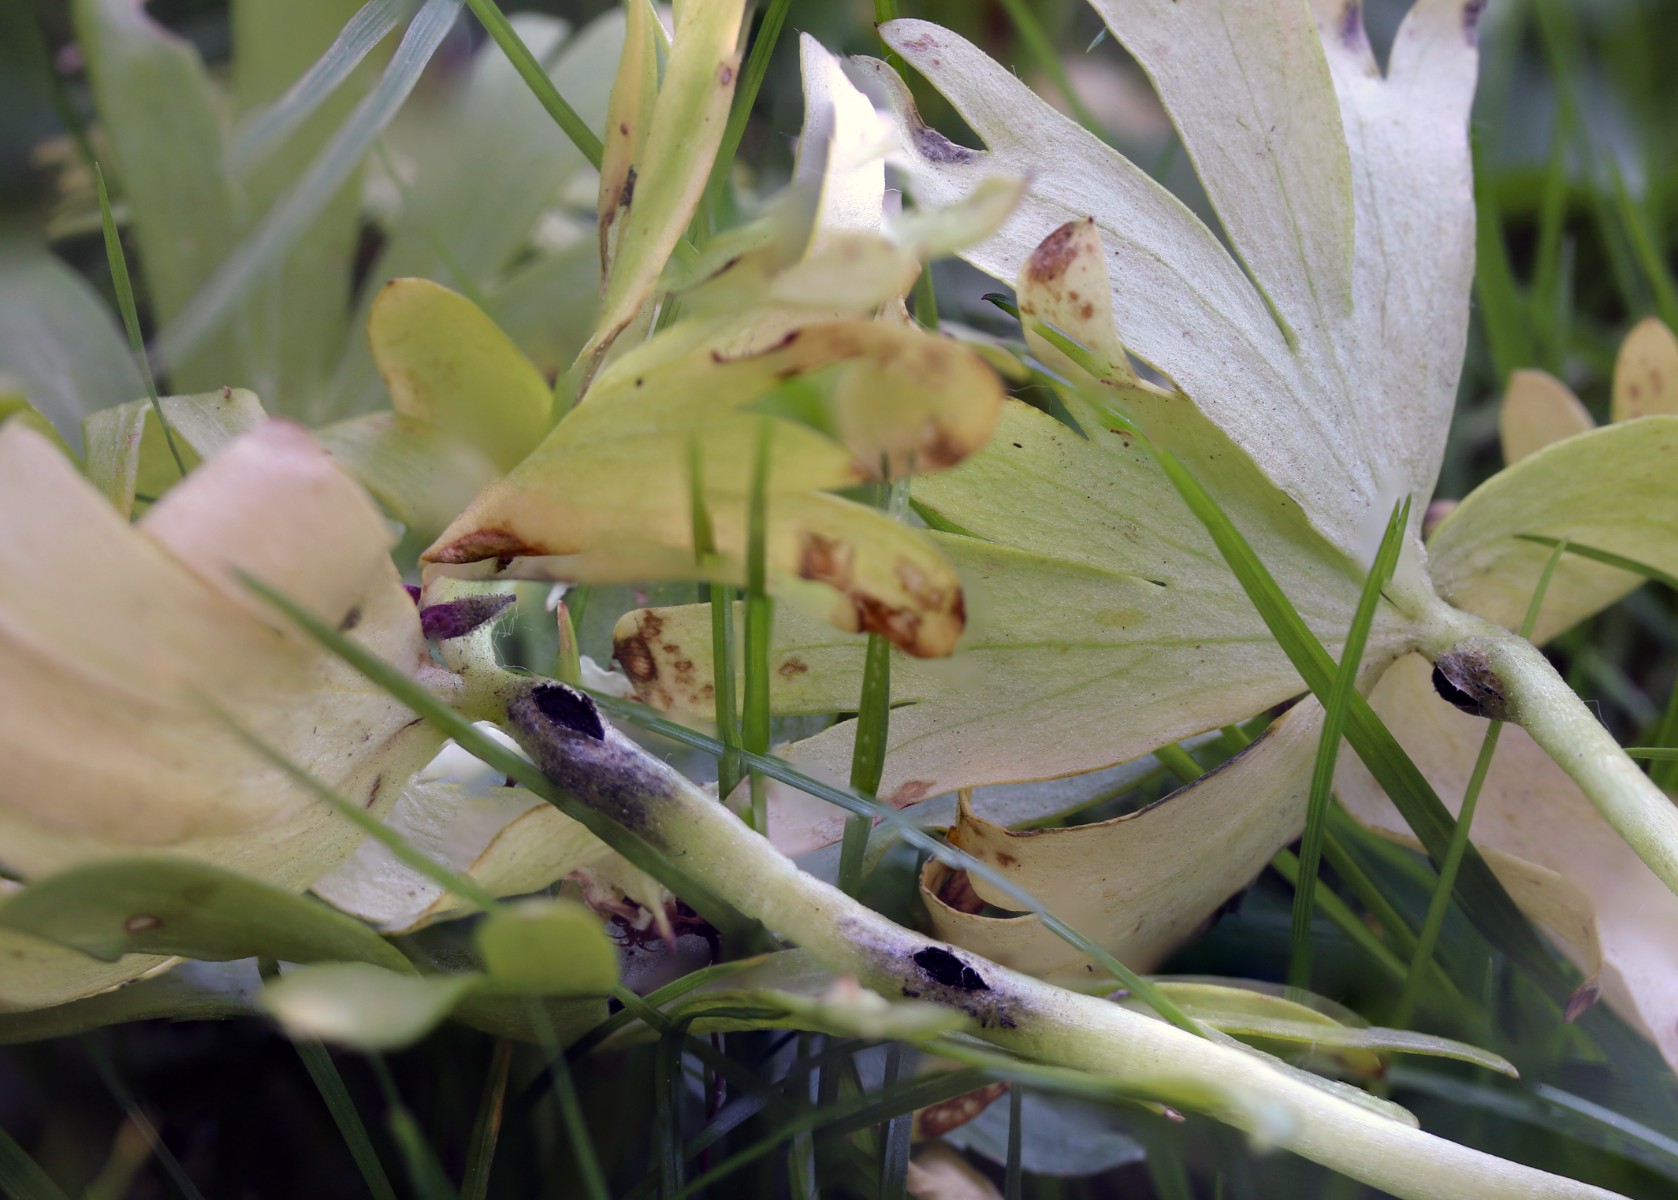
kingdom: Fungi
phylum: Basidiomycota
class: Ustilaginomycetes
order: Urocystidales
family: Urocystidaceae
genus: Urocystis
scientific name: Urocystis eranthidis
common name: erantis-brand
